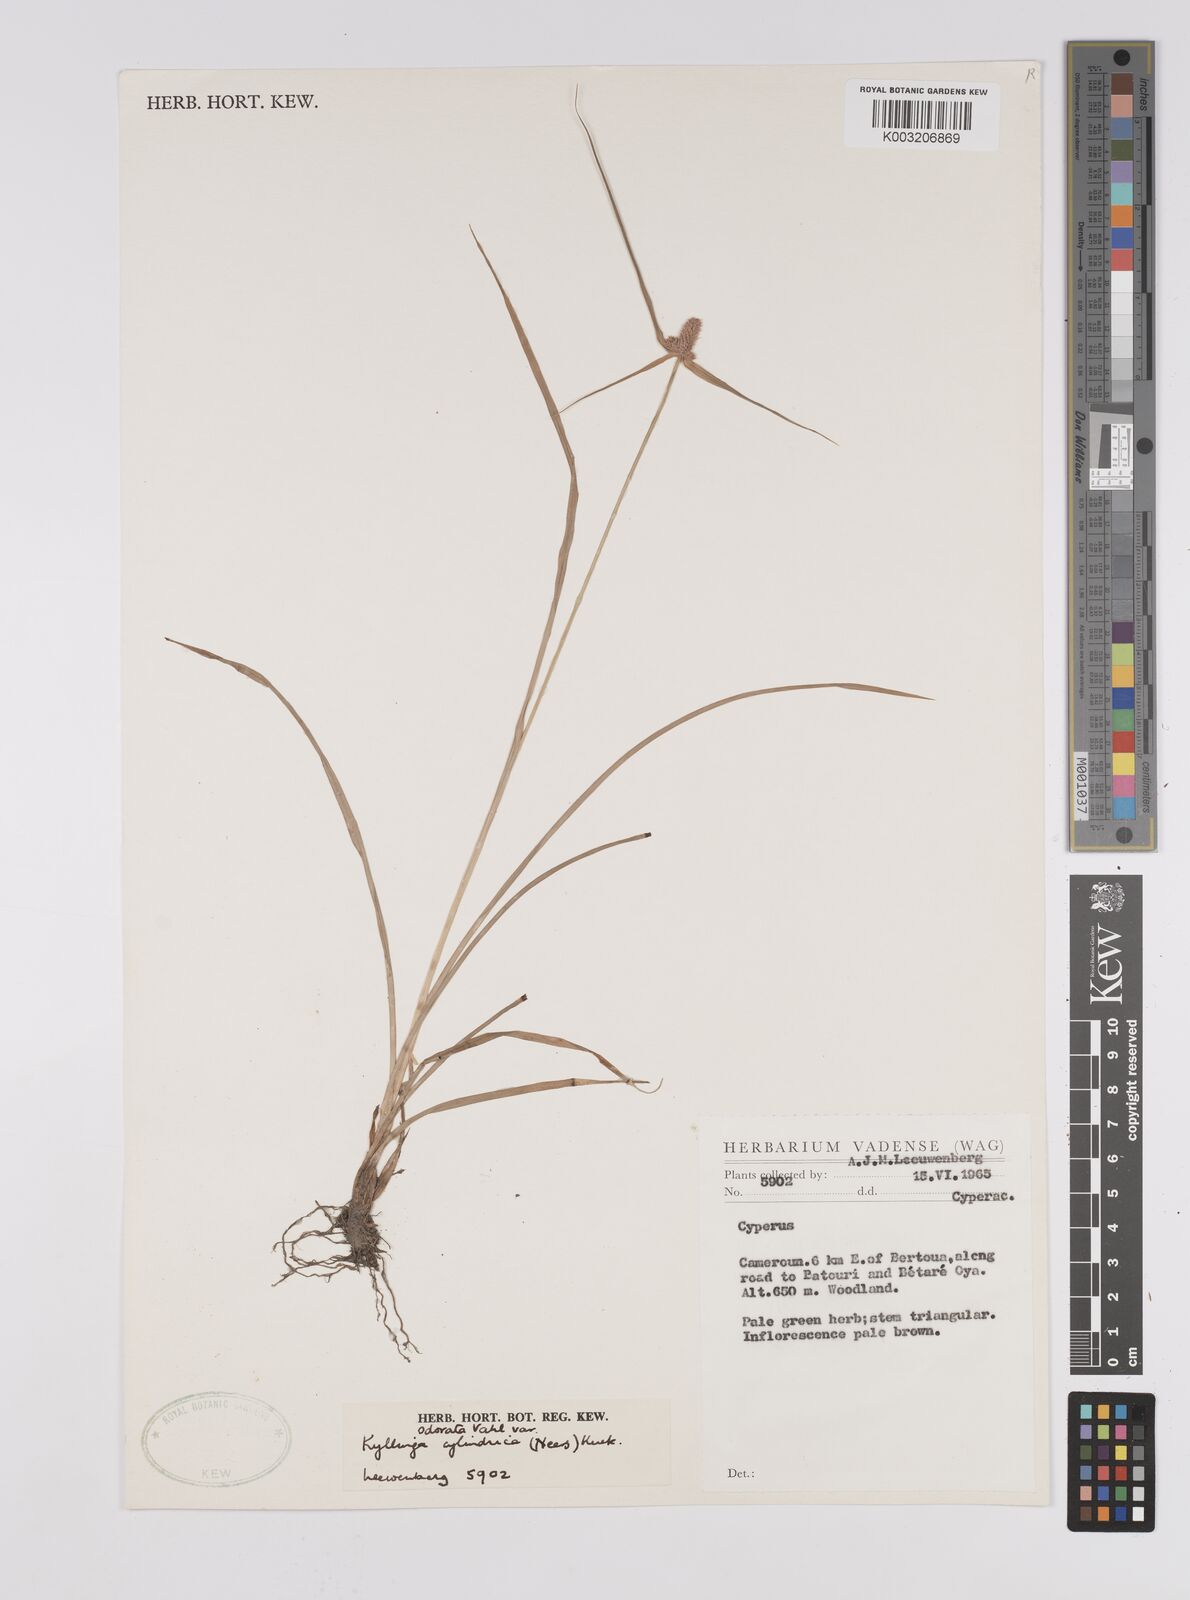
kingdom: Plantae
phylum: Tracheophyta
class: Liliopsida
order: Poales
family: Cyperaceae
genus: Cyperus
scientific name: Cyperus odoratus
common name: Fragrant flatsedge
